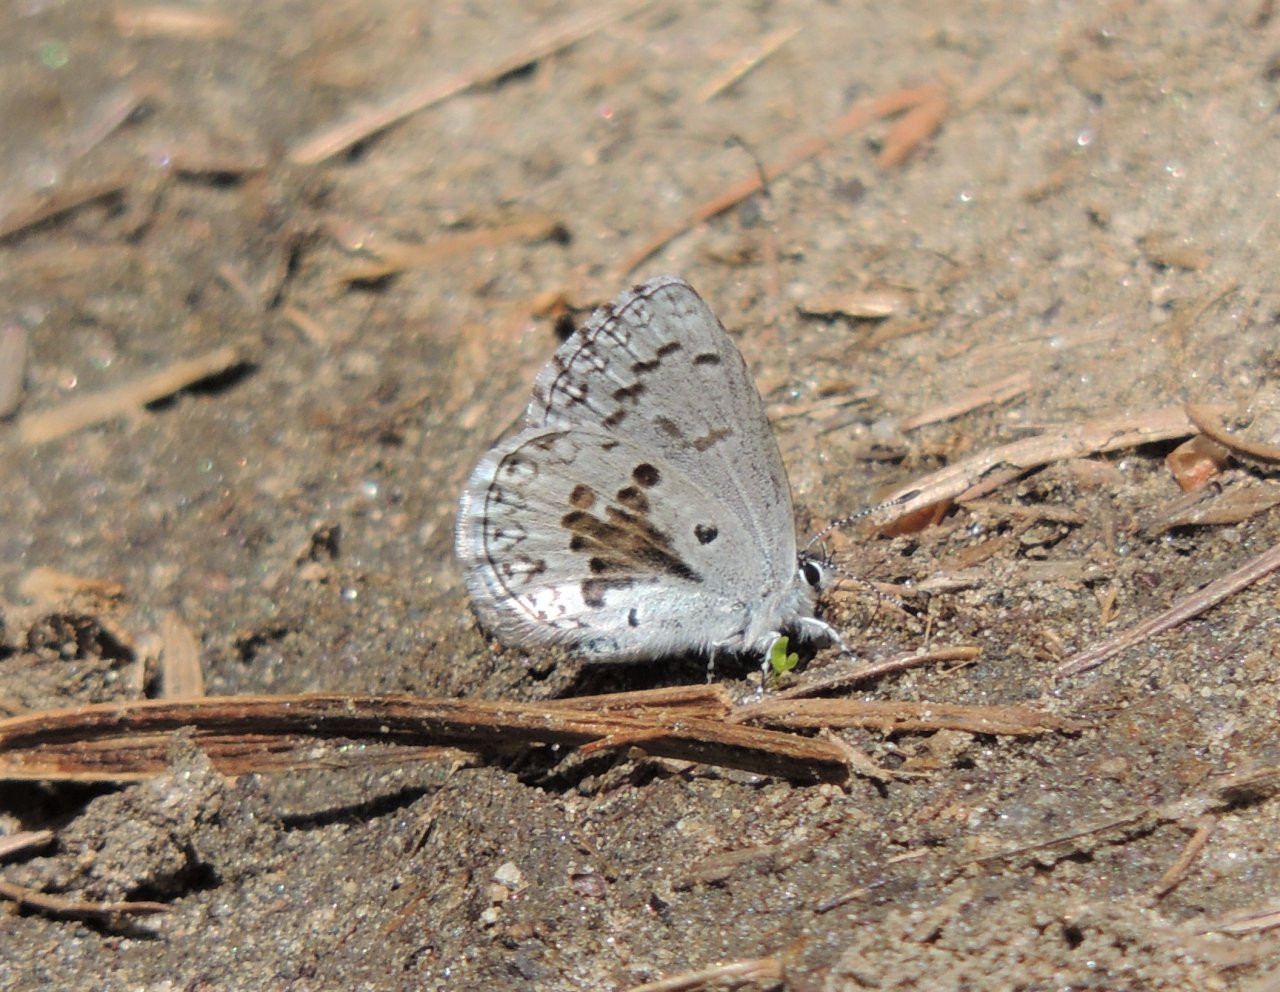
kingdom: Animalia
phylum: Arthropoda
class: Insecta
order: Lepidoptera
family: Lycaenidae
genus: Celastrina
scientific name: Celastrina ladon
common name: Echo Azure
